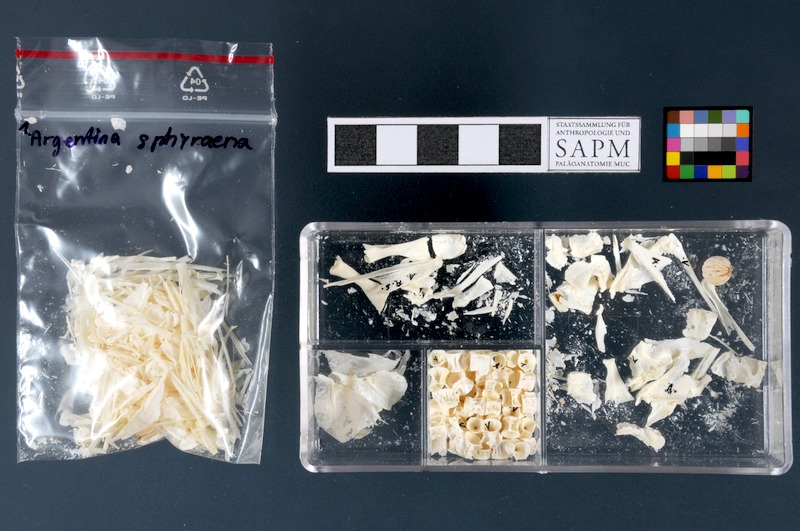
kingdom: Animalia
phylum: Chordata
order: Osmeriformes
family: Argentinidae
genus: Argentina
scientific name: Argentina sphyraena
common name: Argentine
